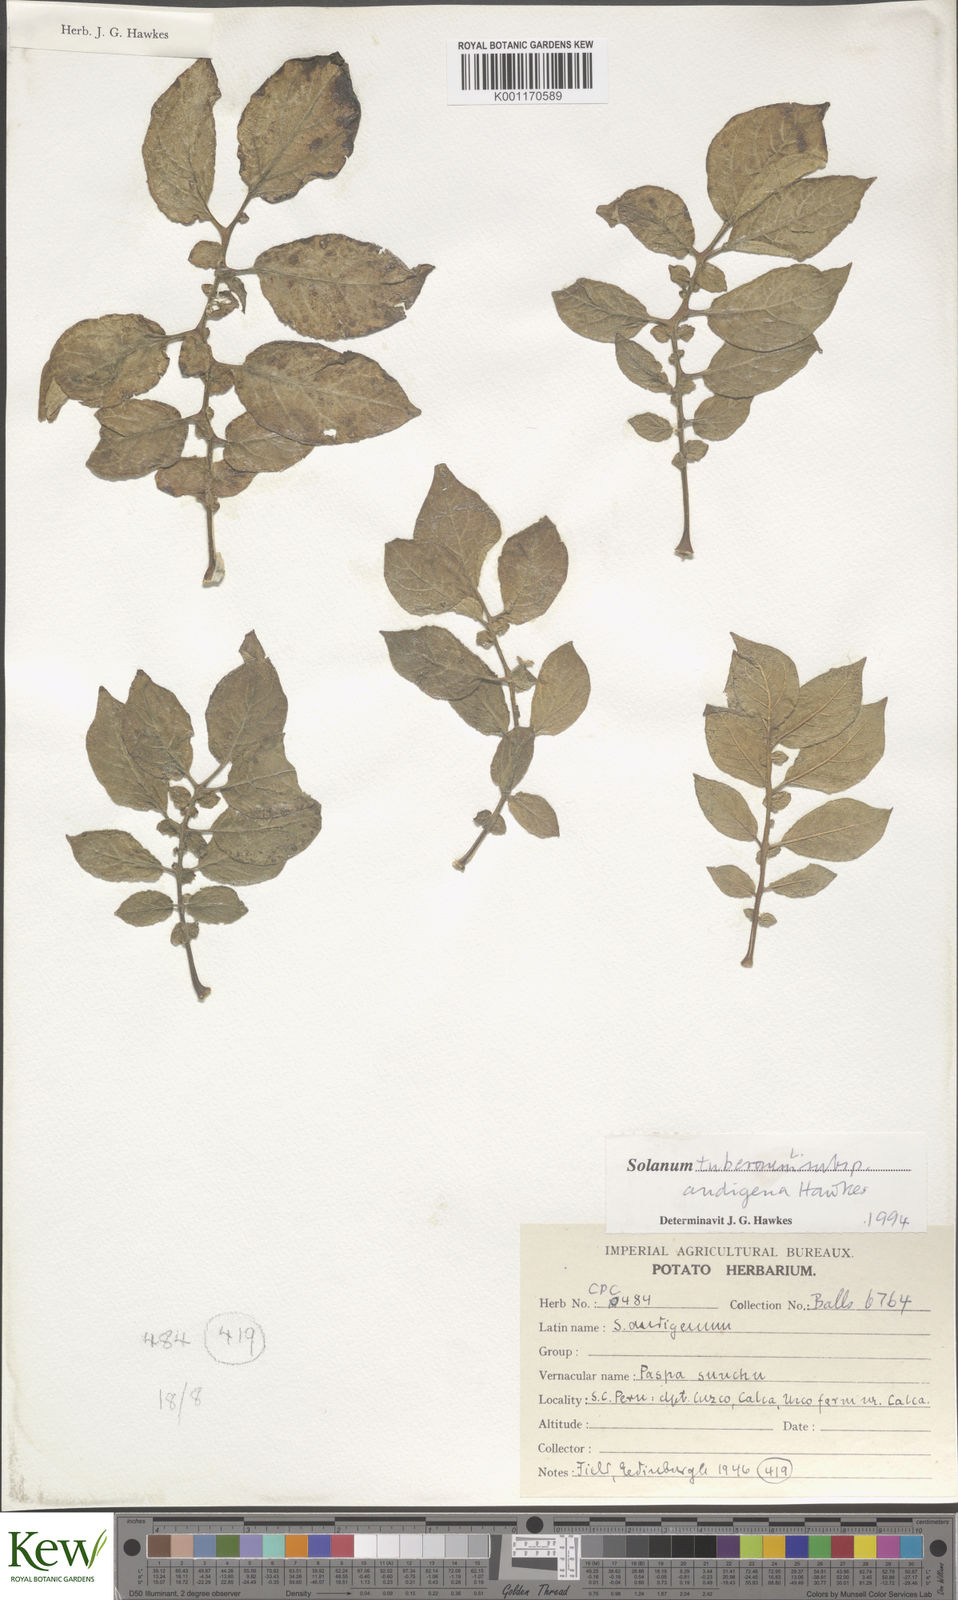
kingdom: Plantae
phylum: Tracheophyta
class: Magnoliopsida
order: Solanales
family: Solanaceae
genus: Solanum
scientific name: Solanum tuberosum
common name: Potato
